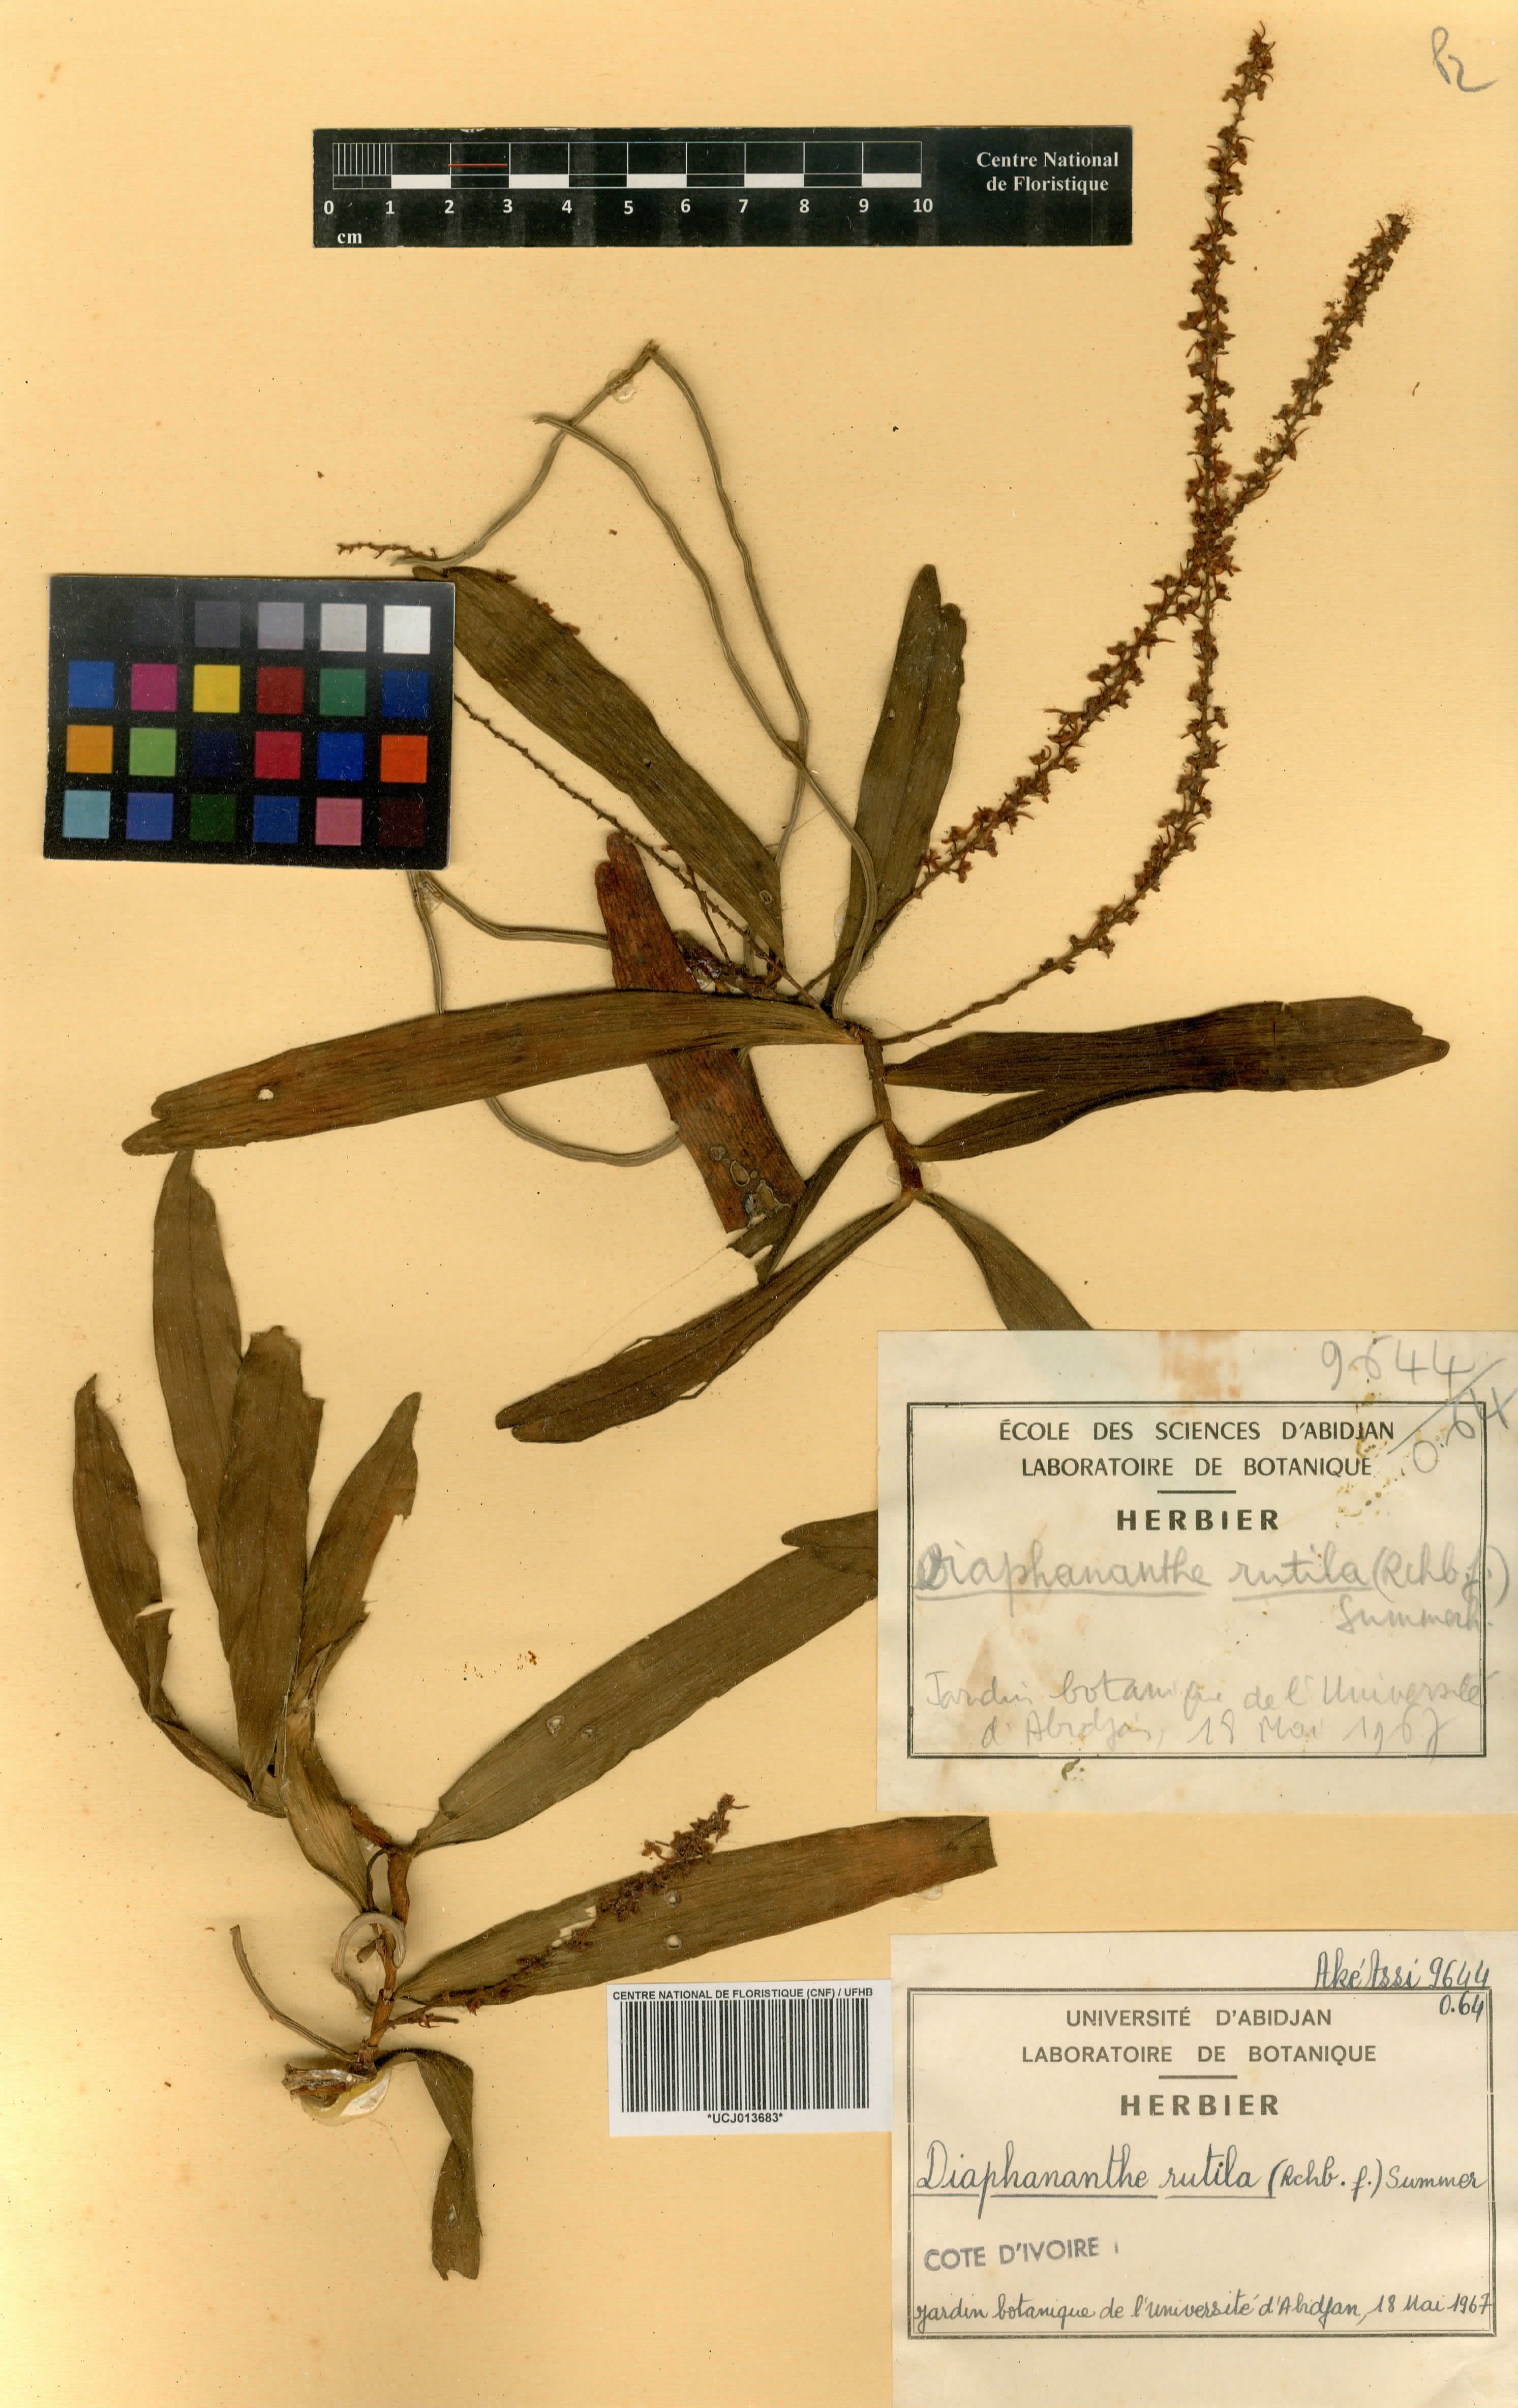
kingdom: Plantae
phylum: Tracheophyta
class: Liliopsida
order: Asparagales
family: Orchidaceae
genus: Rhipidoglossum
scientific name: Rhipidoglossum rutilum
